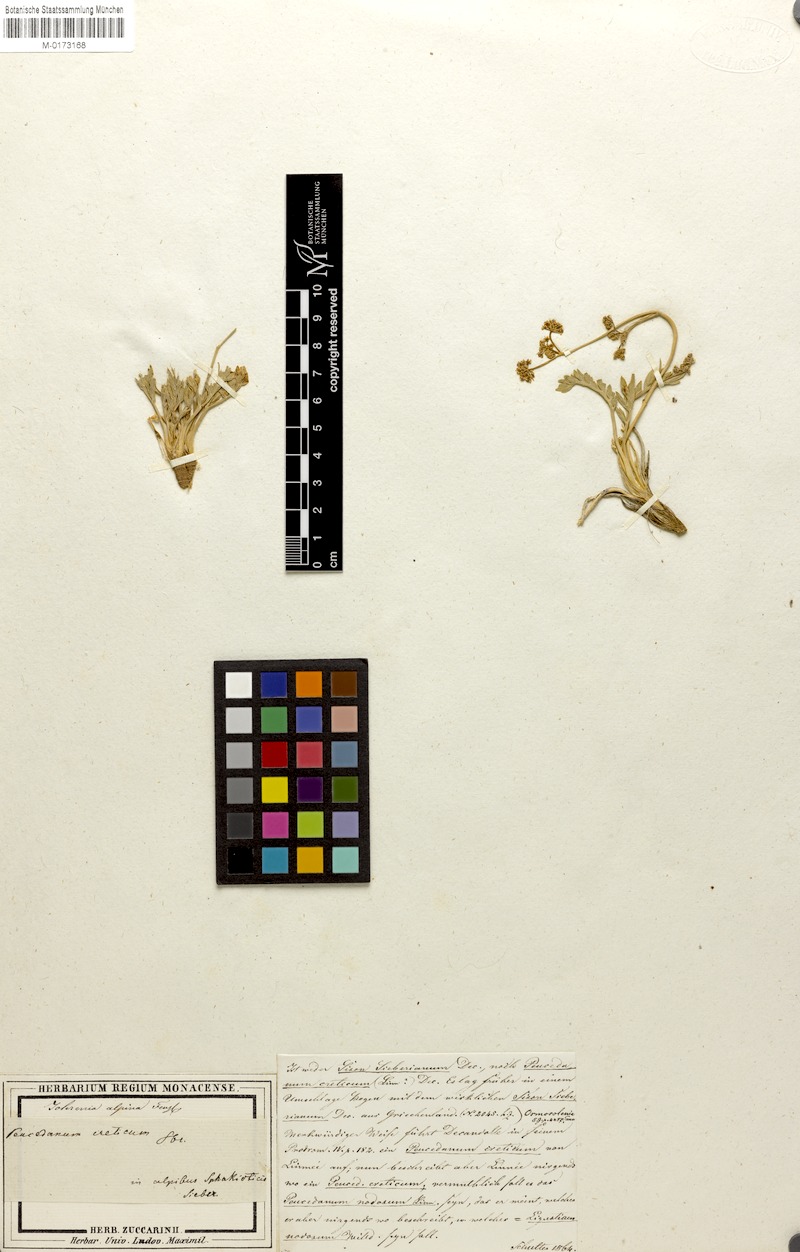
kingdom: Plantae
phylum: Tracheophyta
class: Magnoliopsida
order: Apiales
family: Apiaceae
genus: Ormosolenia
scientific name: Ormosolenia alpina
